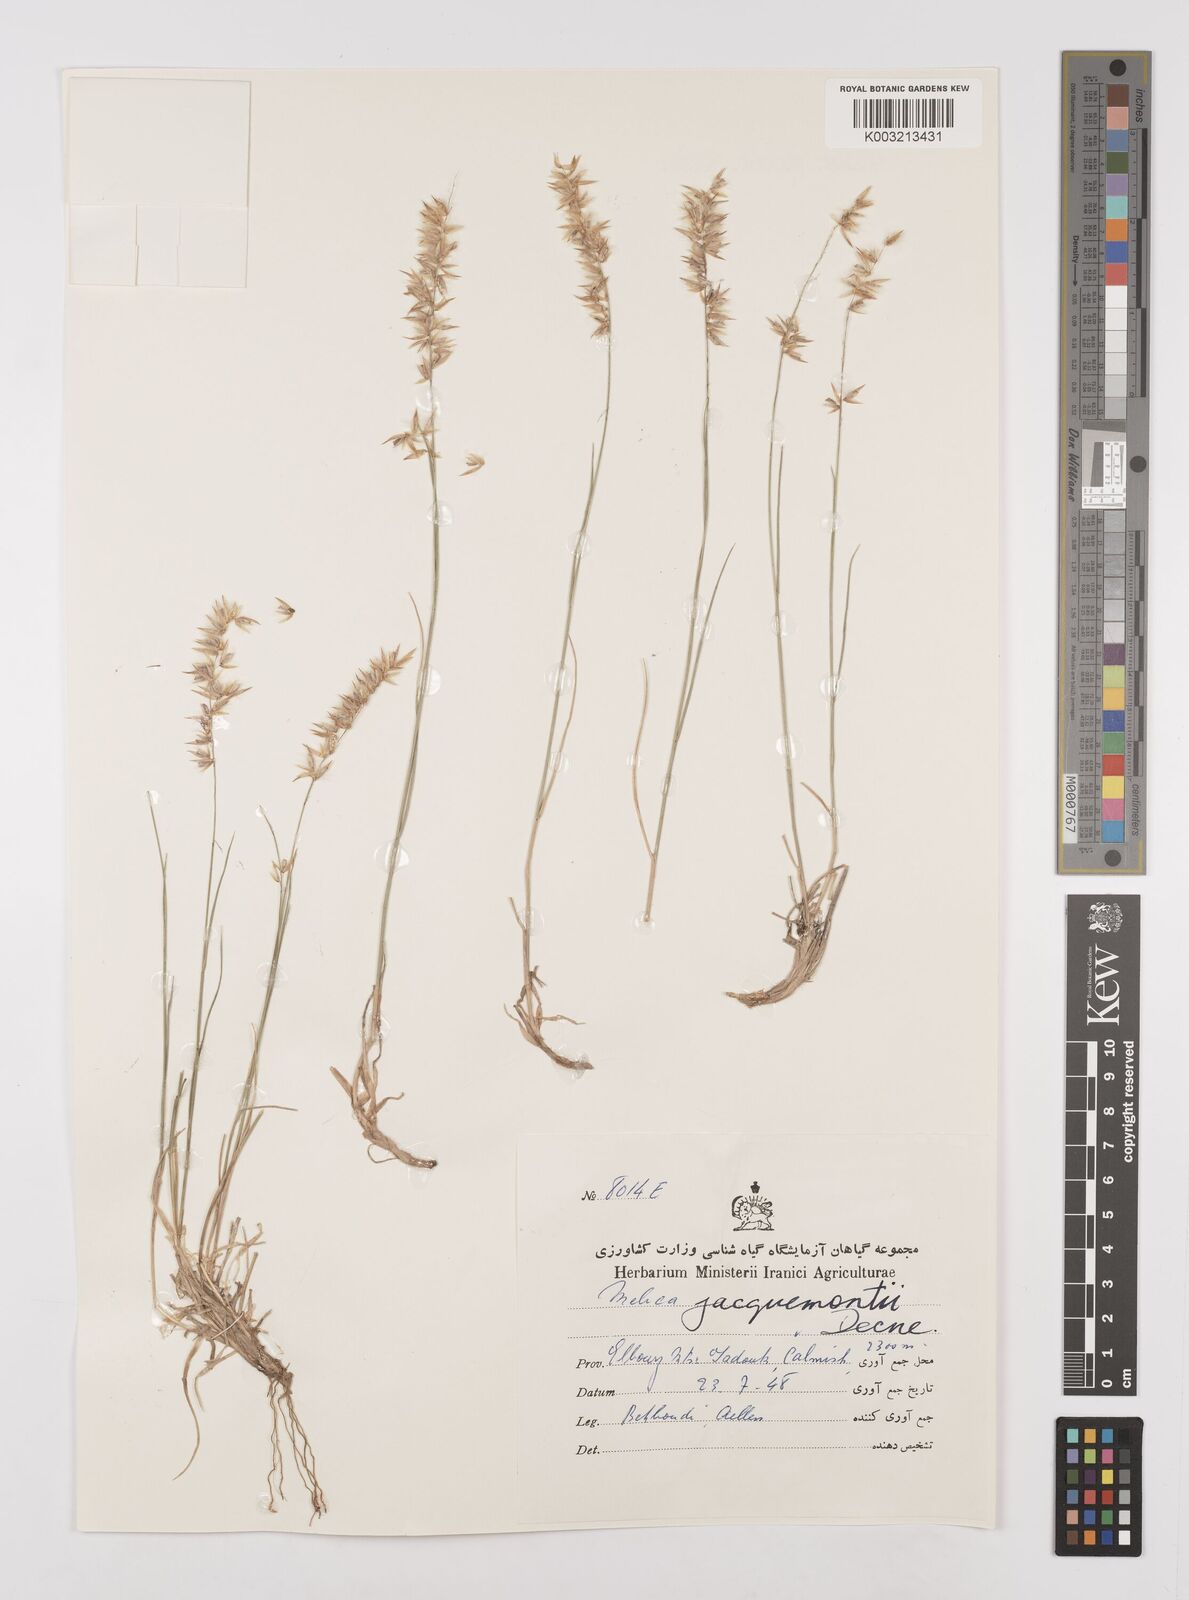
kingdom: Plantae
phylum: Tracheophyta
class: Liliopsida
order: Poales
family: Poaceae
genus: Melica
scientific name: Melica persica
